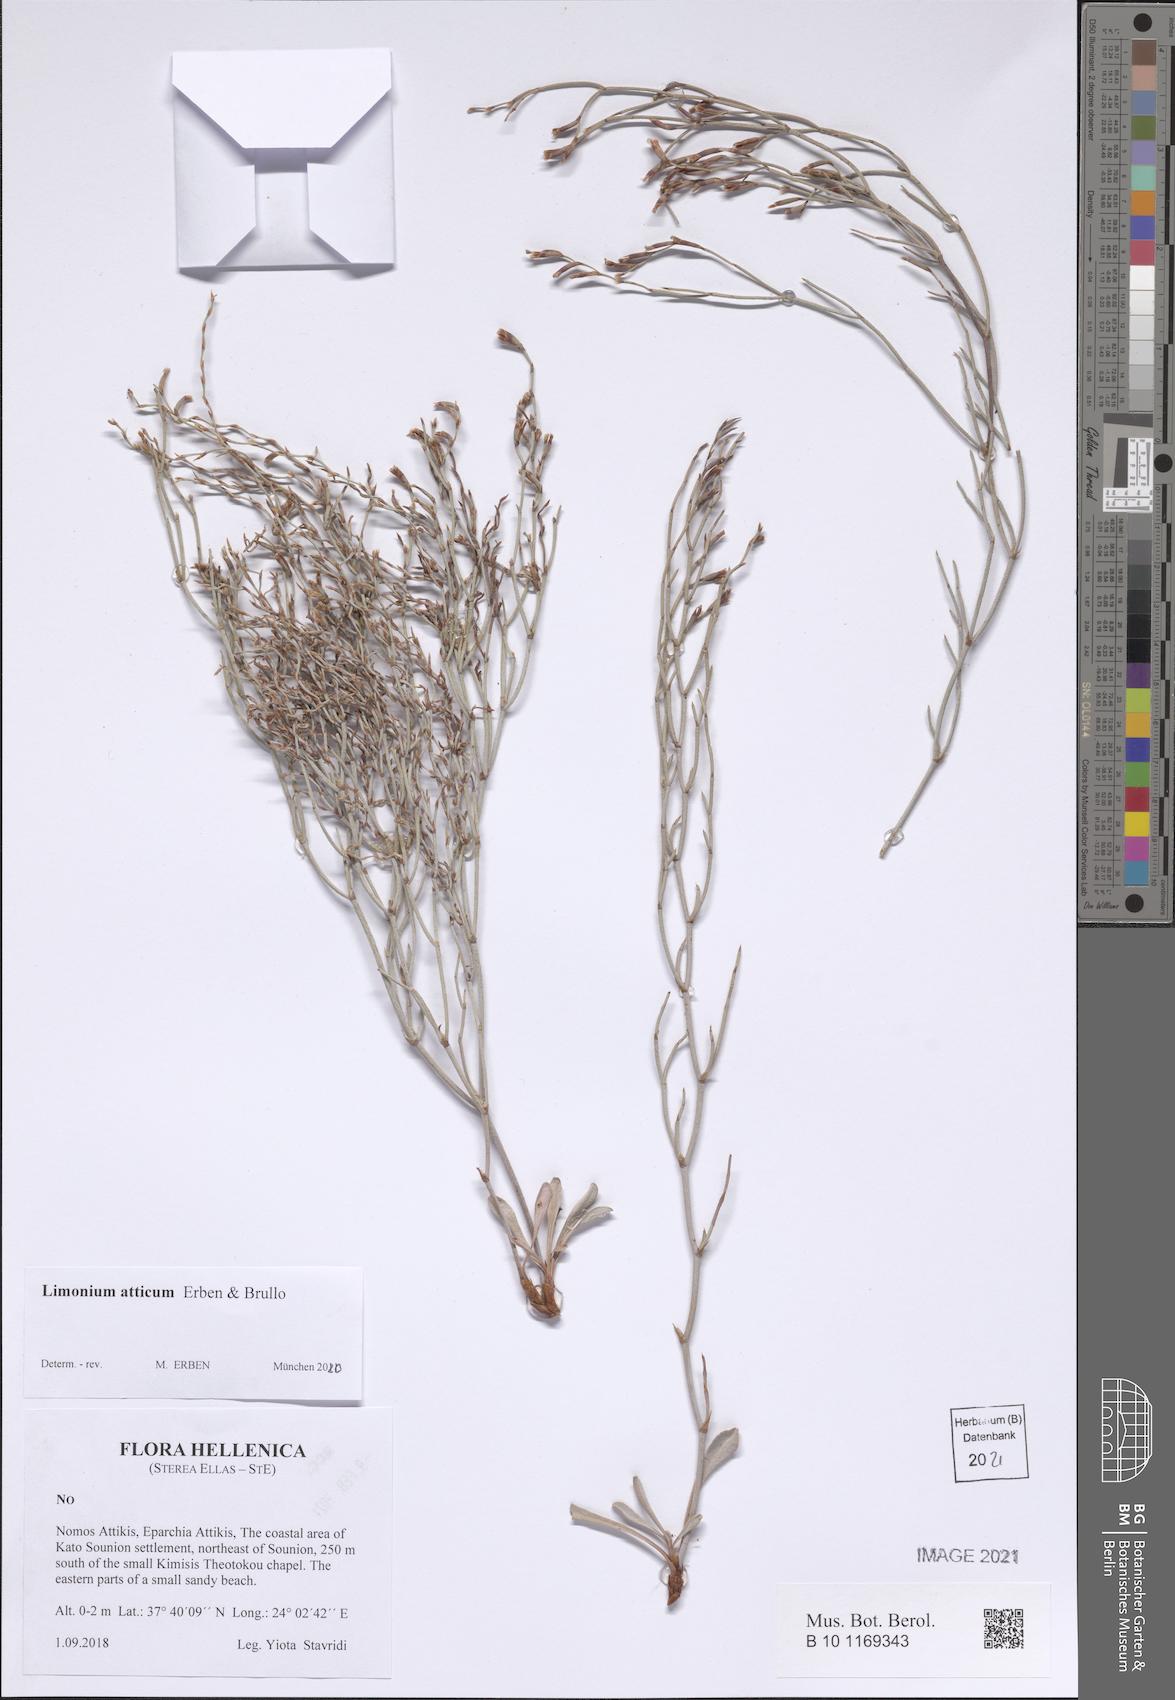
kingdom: Plantae
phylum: Tracheophyta
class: Magnoliopsida
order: Caryophyllales
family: Plumbaginaceae
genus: Limonium
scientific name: Limonium atticum
